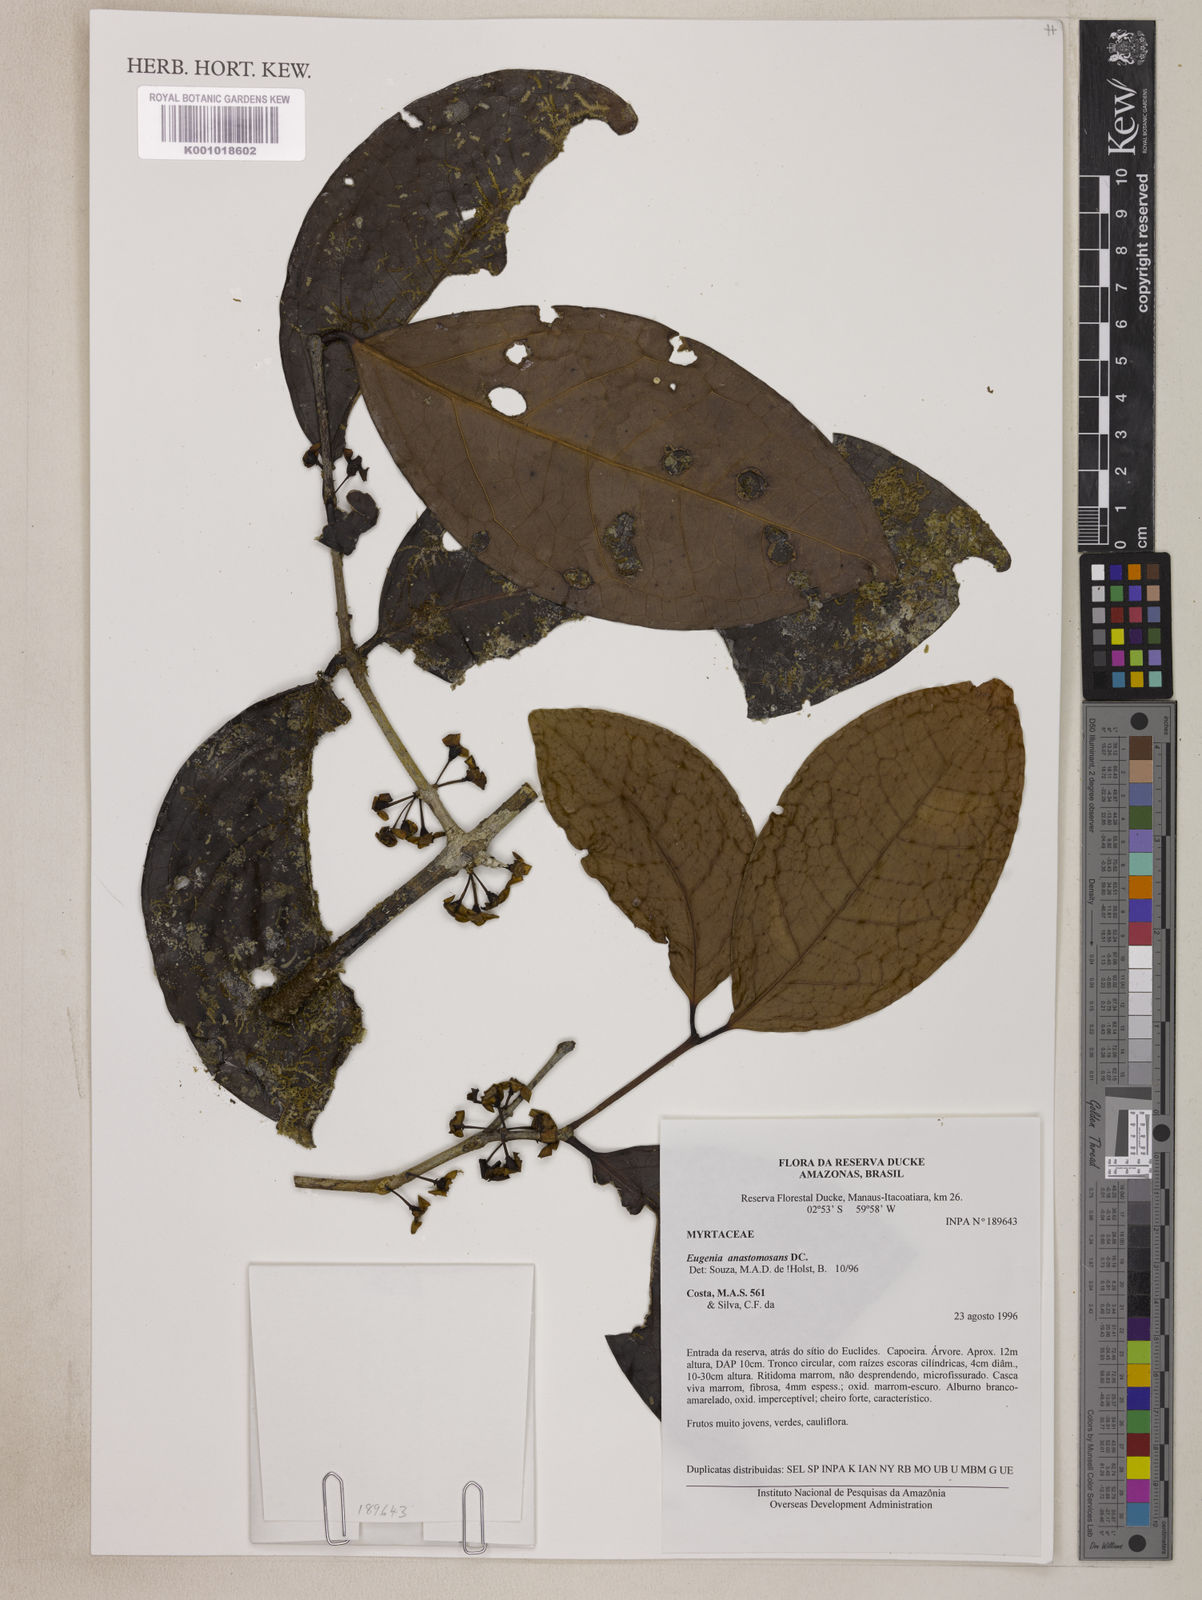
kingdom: Plantae
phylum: Tracheophyta
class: Magnoliopsida
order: Myrtales
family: Myrtaceae
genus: Eugenia
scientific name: Eugenia anastomosans
